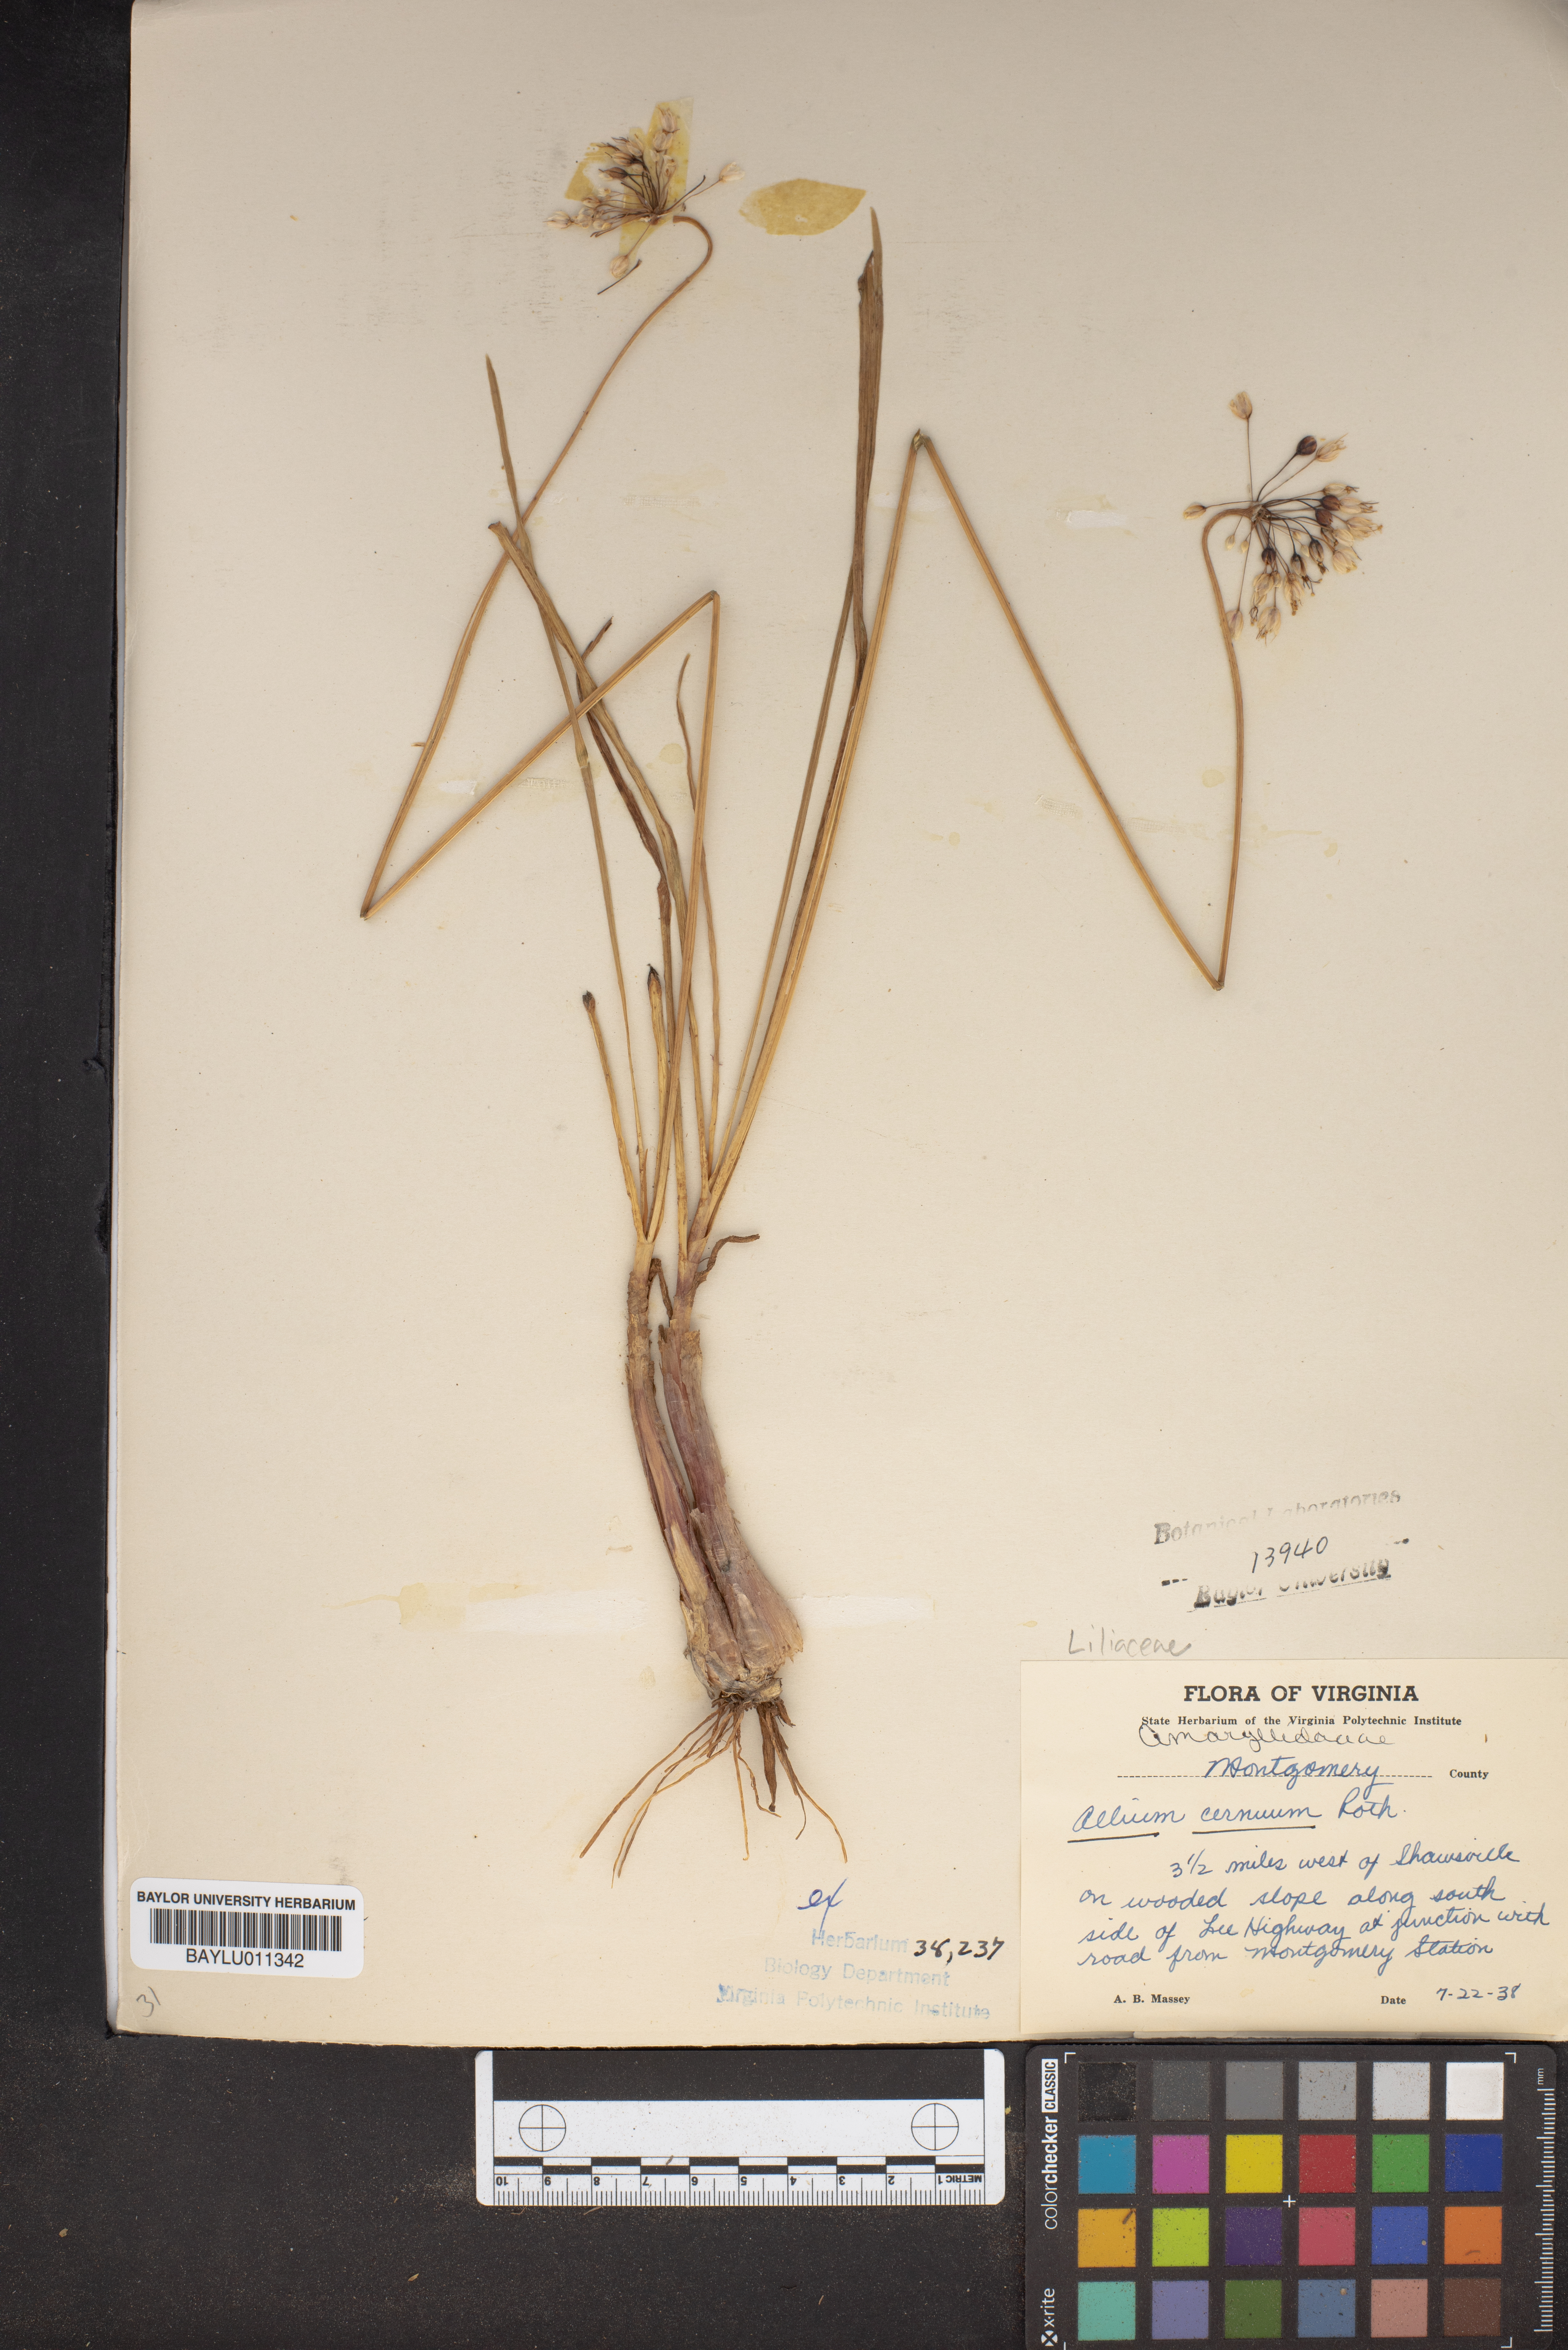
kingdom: Plantae
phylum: Tracheophyta
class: Liliopsida
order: Asparagales
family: Amaryllidaceae
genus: Allium
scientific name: Allium cernuum
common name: Nodding onion
